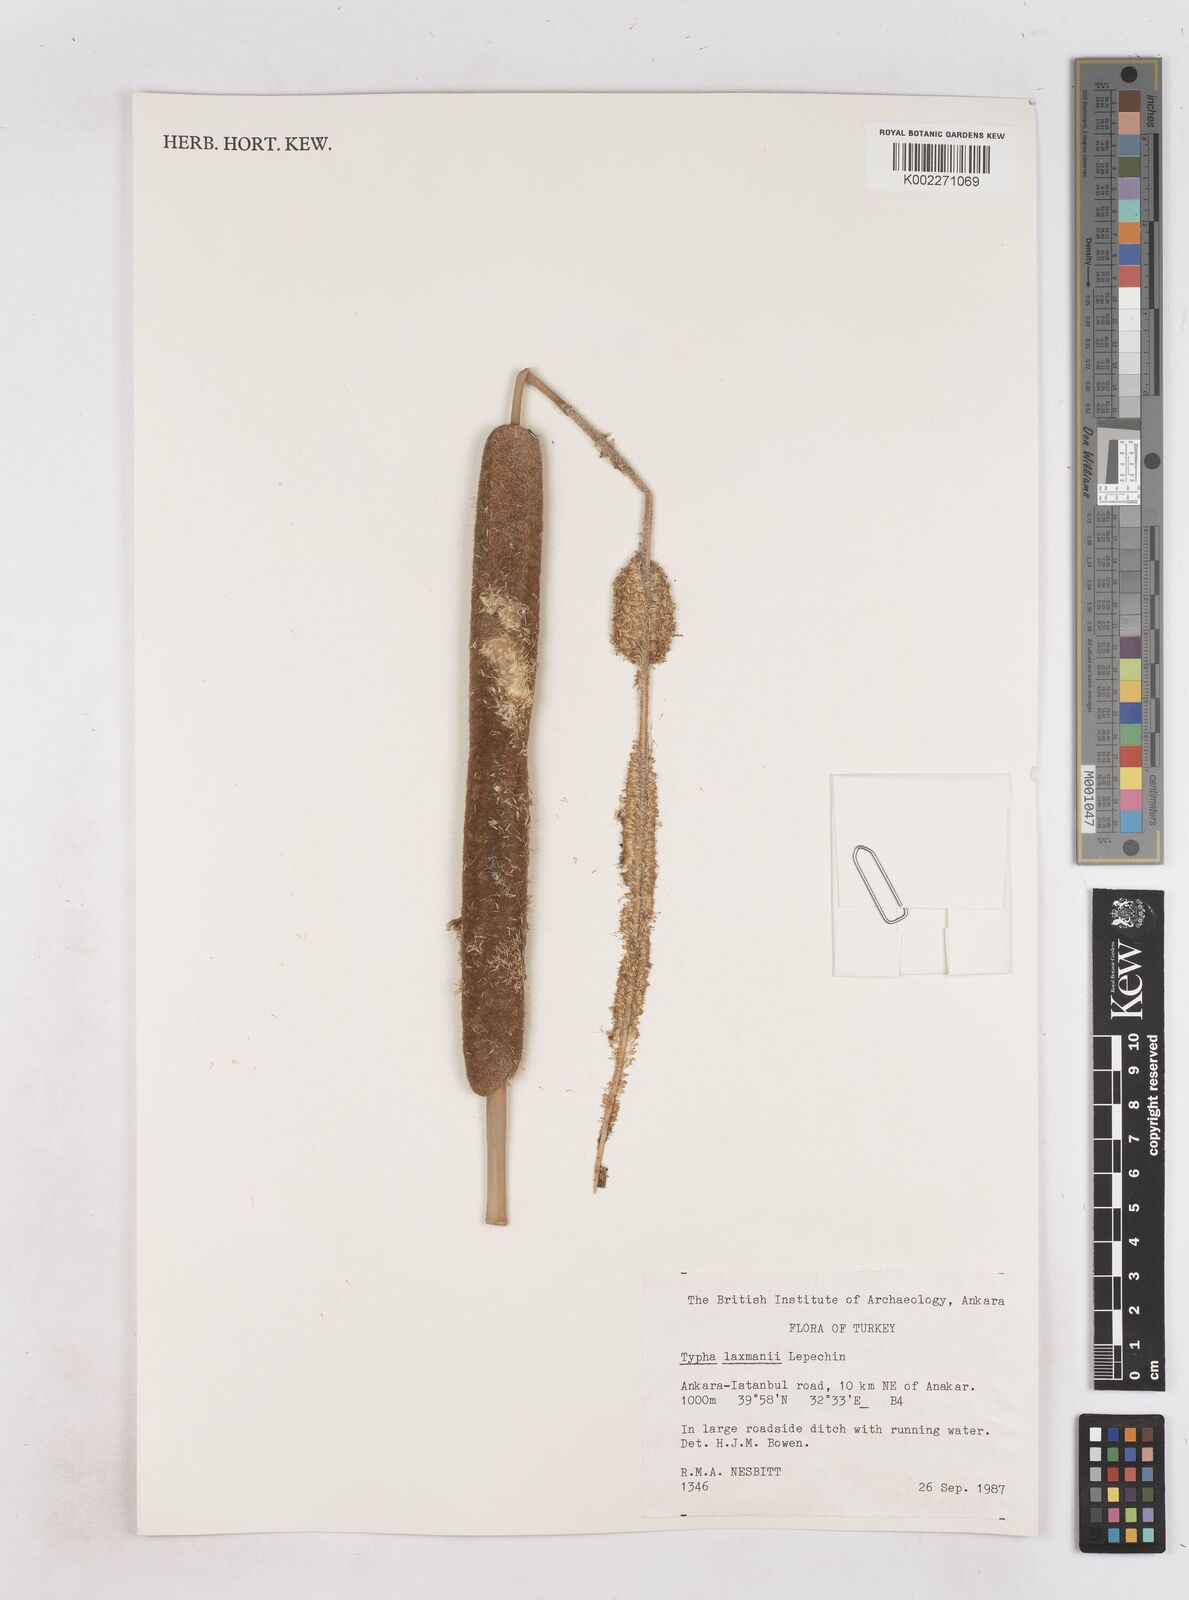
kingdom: Plantae
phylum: Tracheophyta
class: Liliopsida
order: Poales
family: Typhaceae
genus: Typha
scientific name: Typha laxmannii
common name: Laxman’s bulrush
